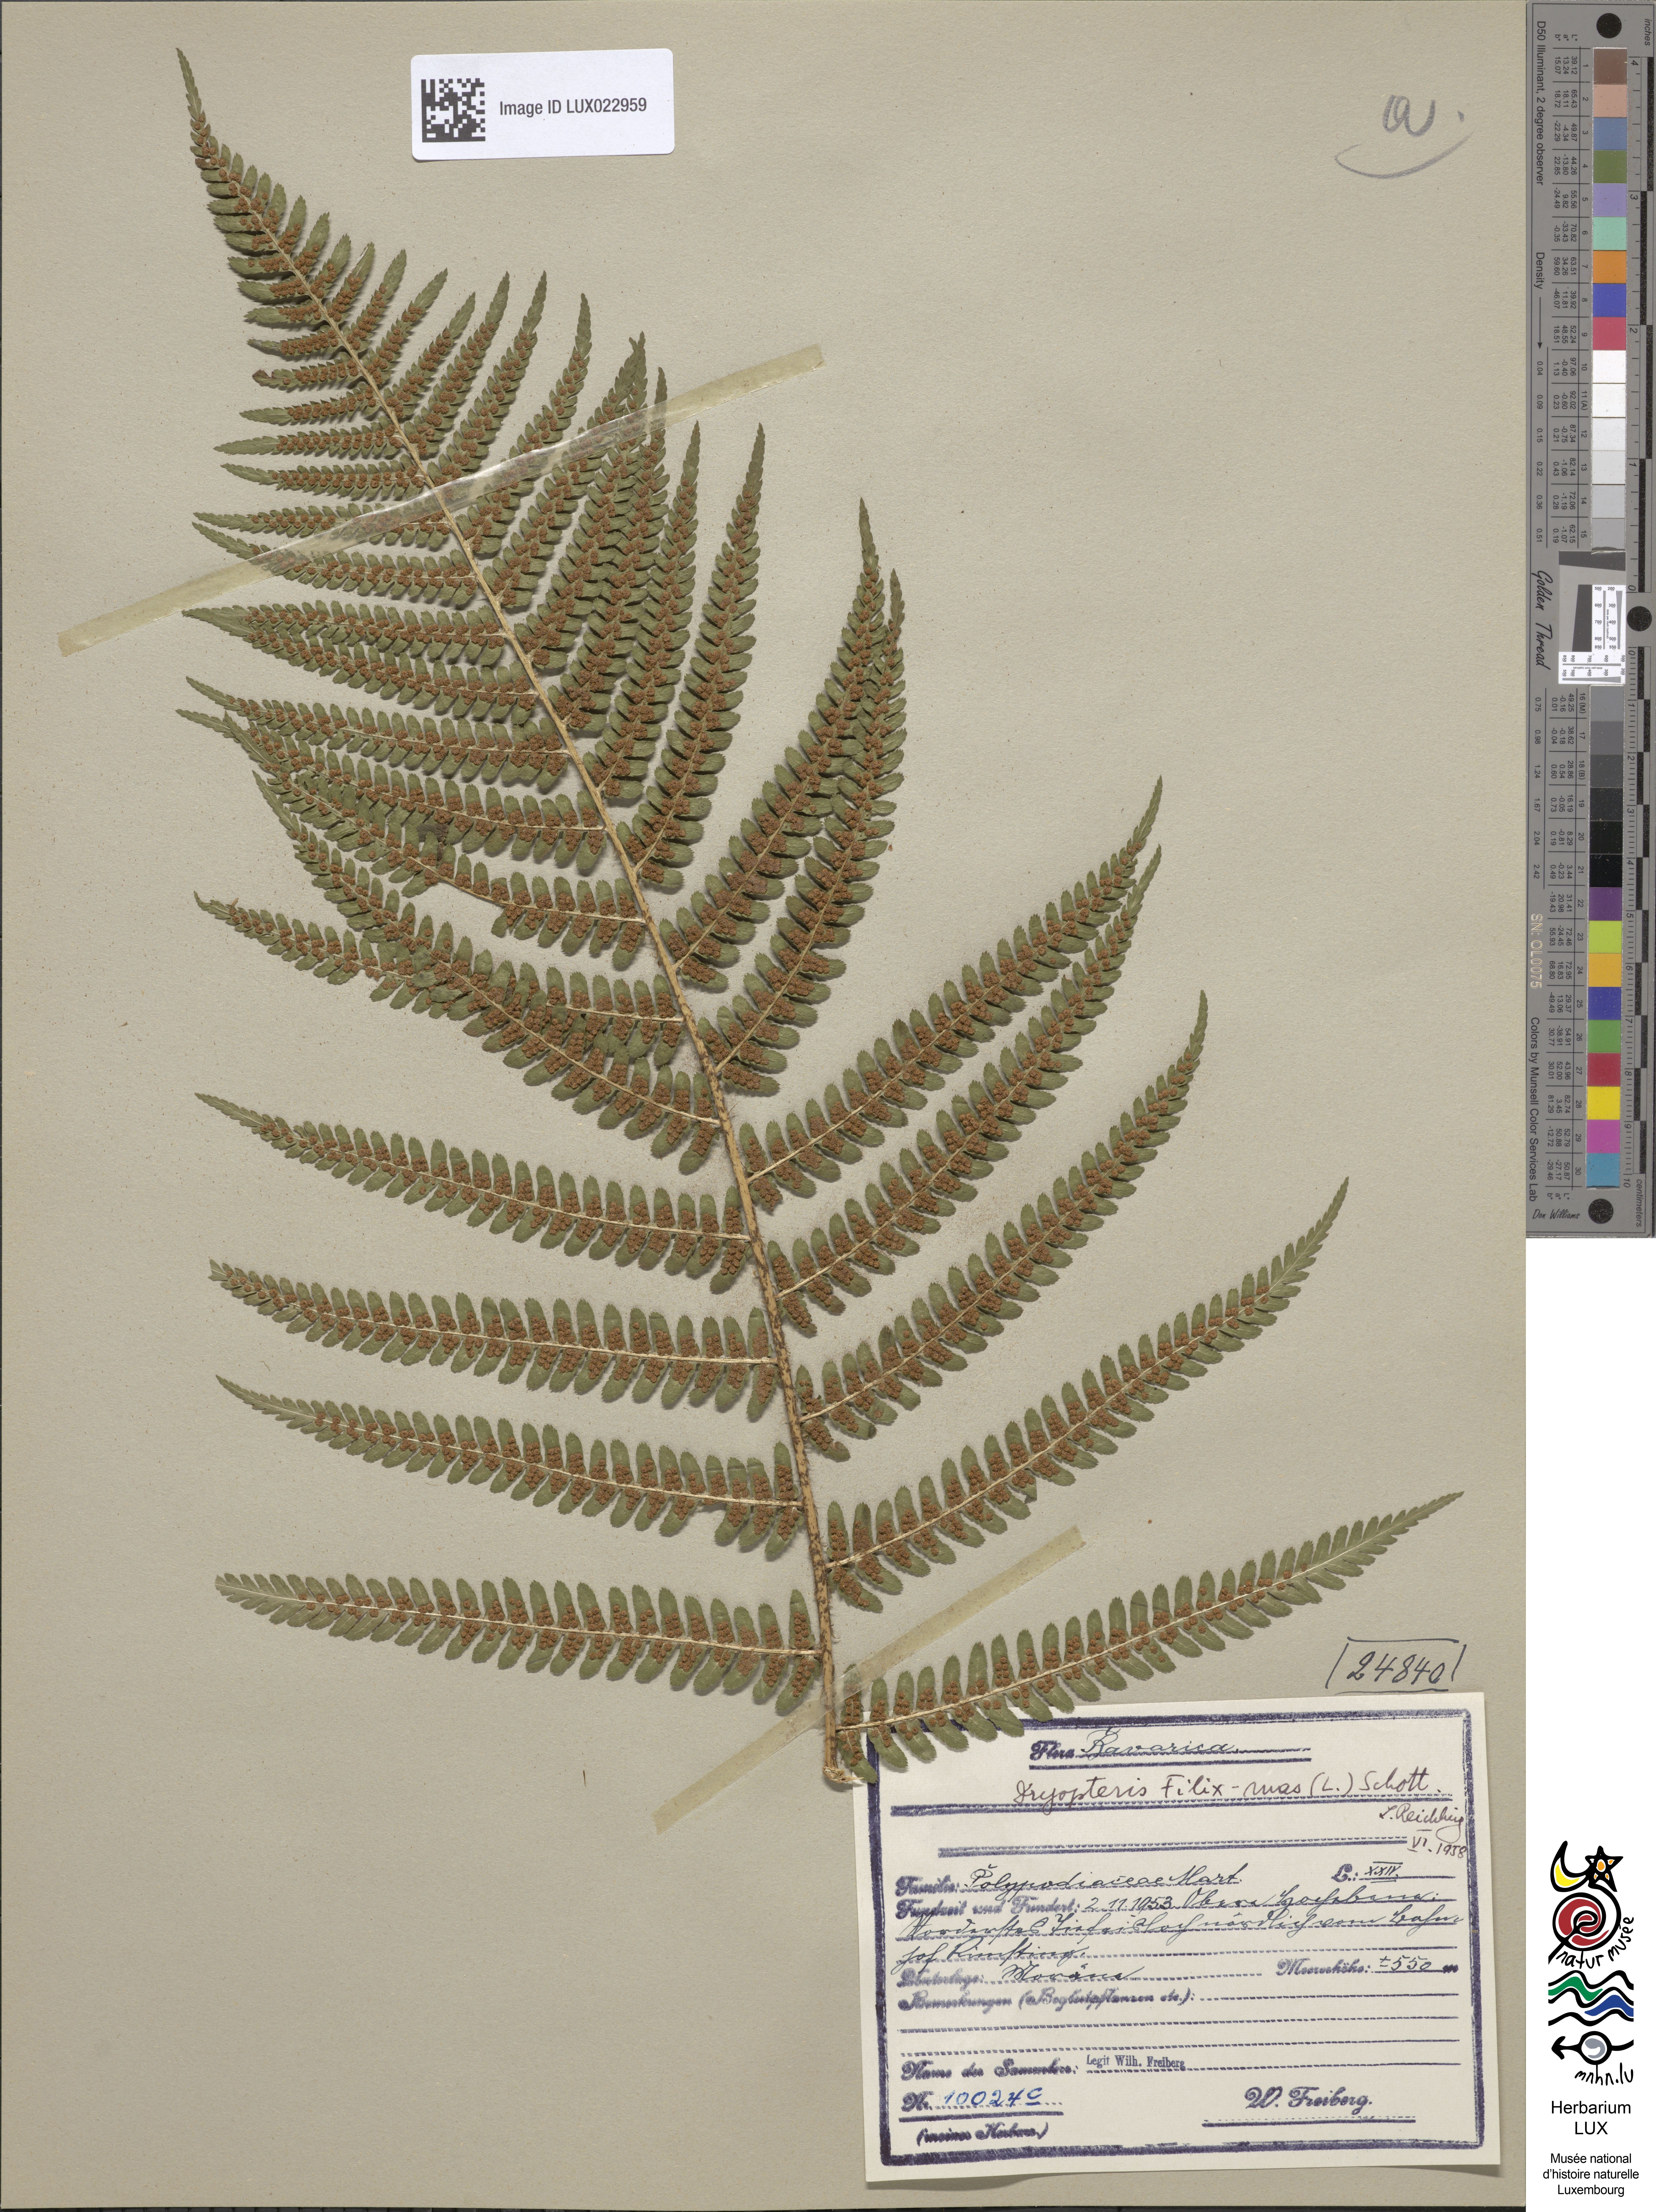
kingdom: Plantae
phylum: Tracheophyta
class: Polypodiopsida
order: Polypodiales
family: Dryopteridaceae
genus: Dryopteris
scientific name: Dryopteris filix-mas
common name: Male fern
